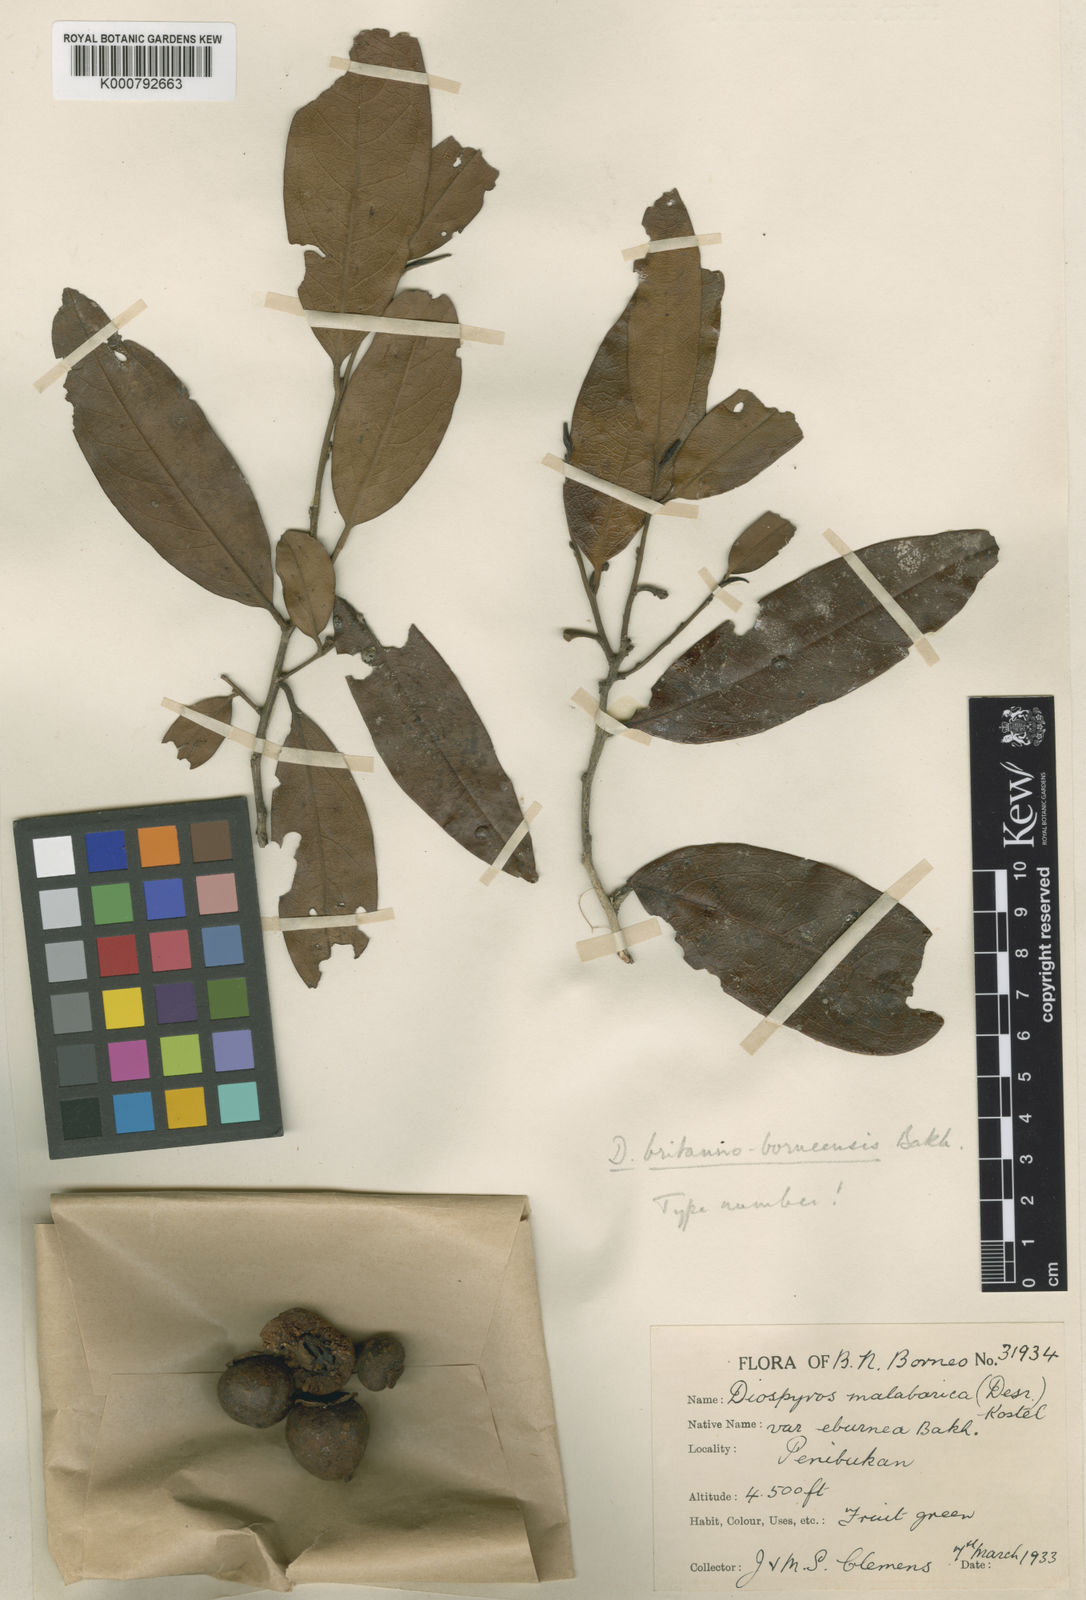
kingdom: Plantae
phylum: Tracheophyta
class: Magnoliopsida
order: Ericales
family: Ebenaceae
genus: Diospyros
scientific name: Diospyros britannoborneensis
